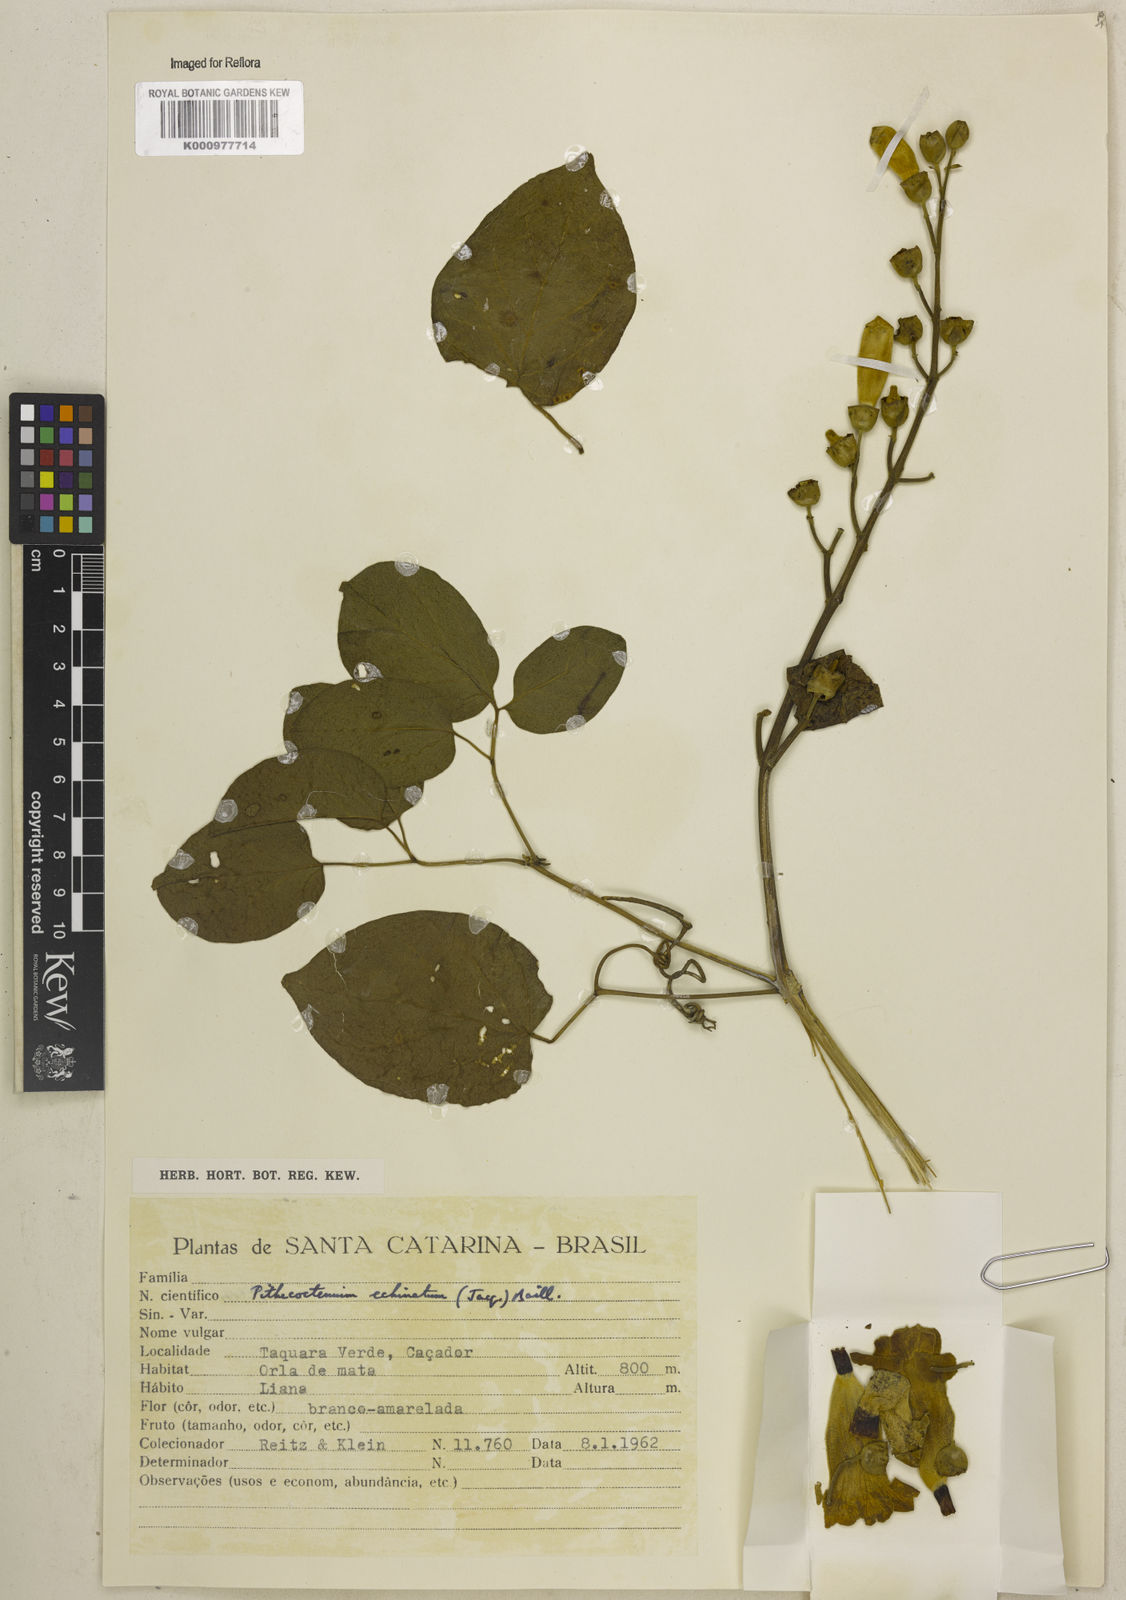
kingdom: Plantae
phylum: Tracheophyta
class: Magnoliopsida
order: Lamiales
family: Bignoniaceae
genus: Amphilophium
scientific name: Amphilophium crucigerum
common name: Monkey comb
